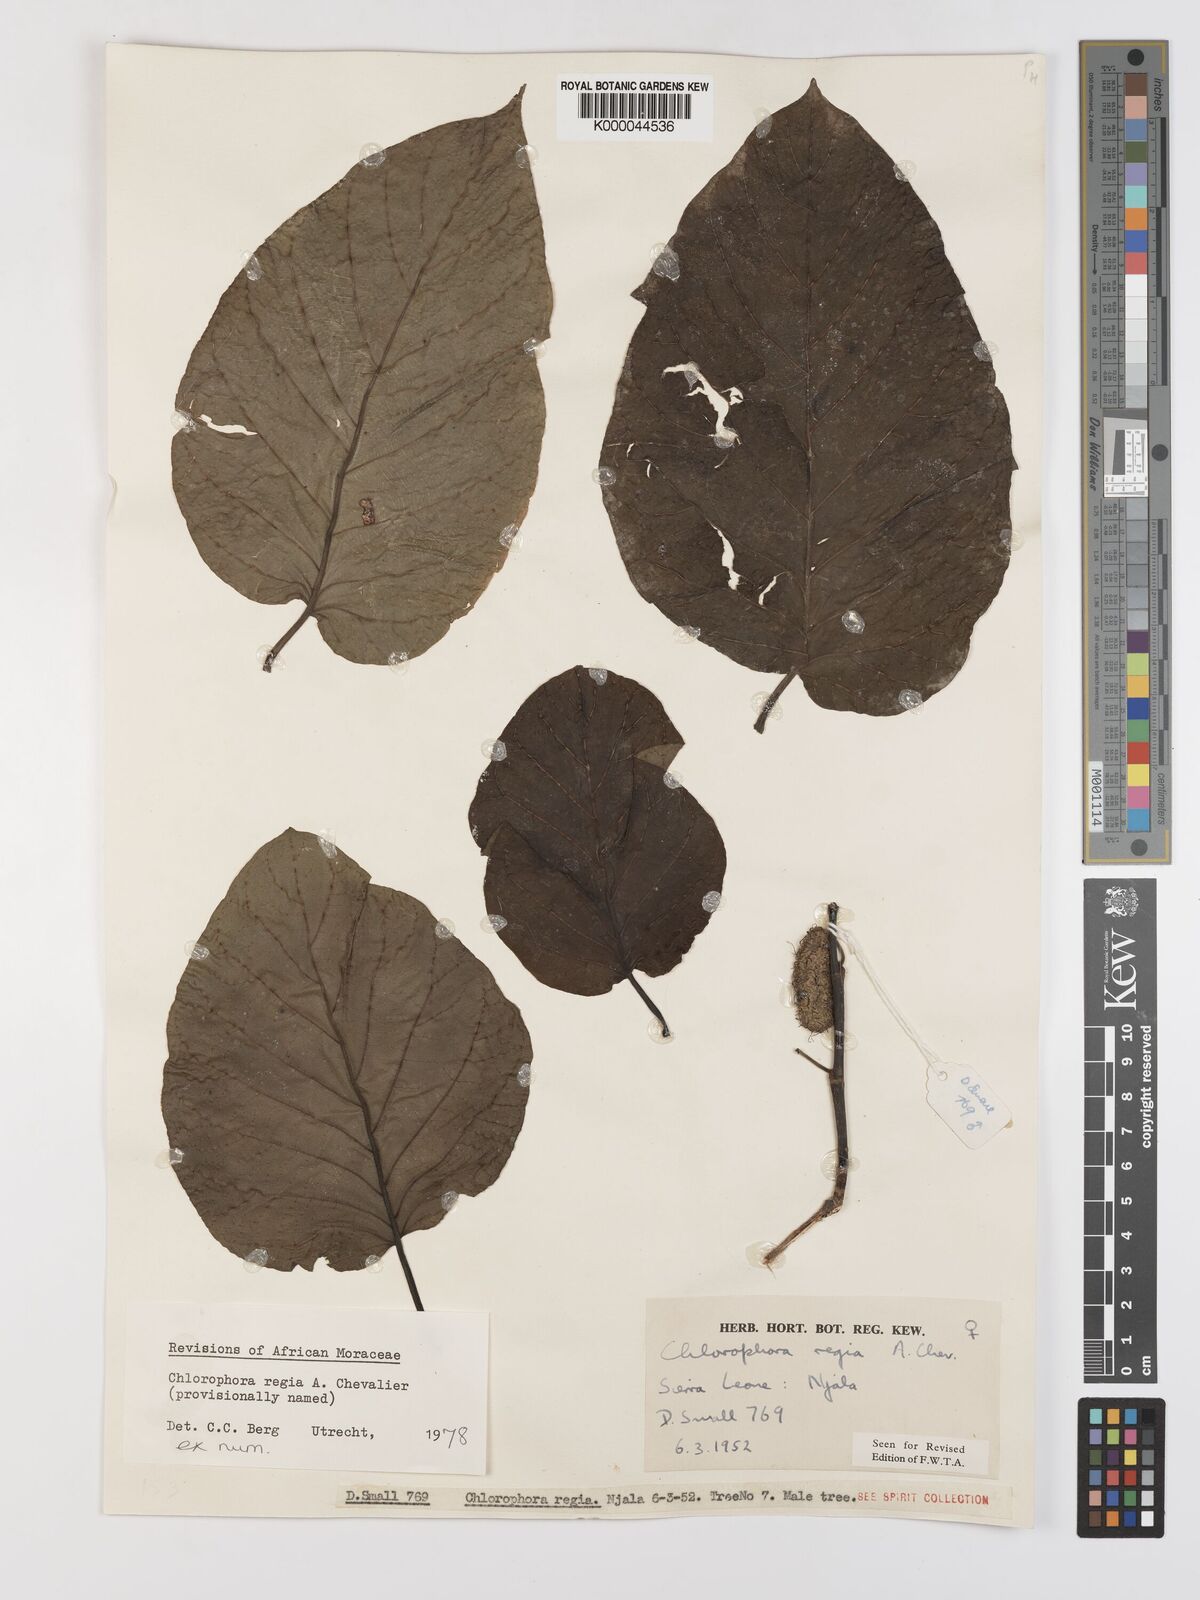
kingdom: Plantae
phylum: Tracheophyta
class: Magnoliopsida
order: Rosales
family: Moraceae
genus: Milicia
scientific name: Milicia regia
